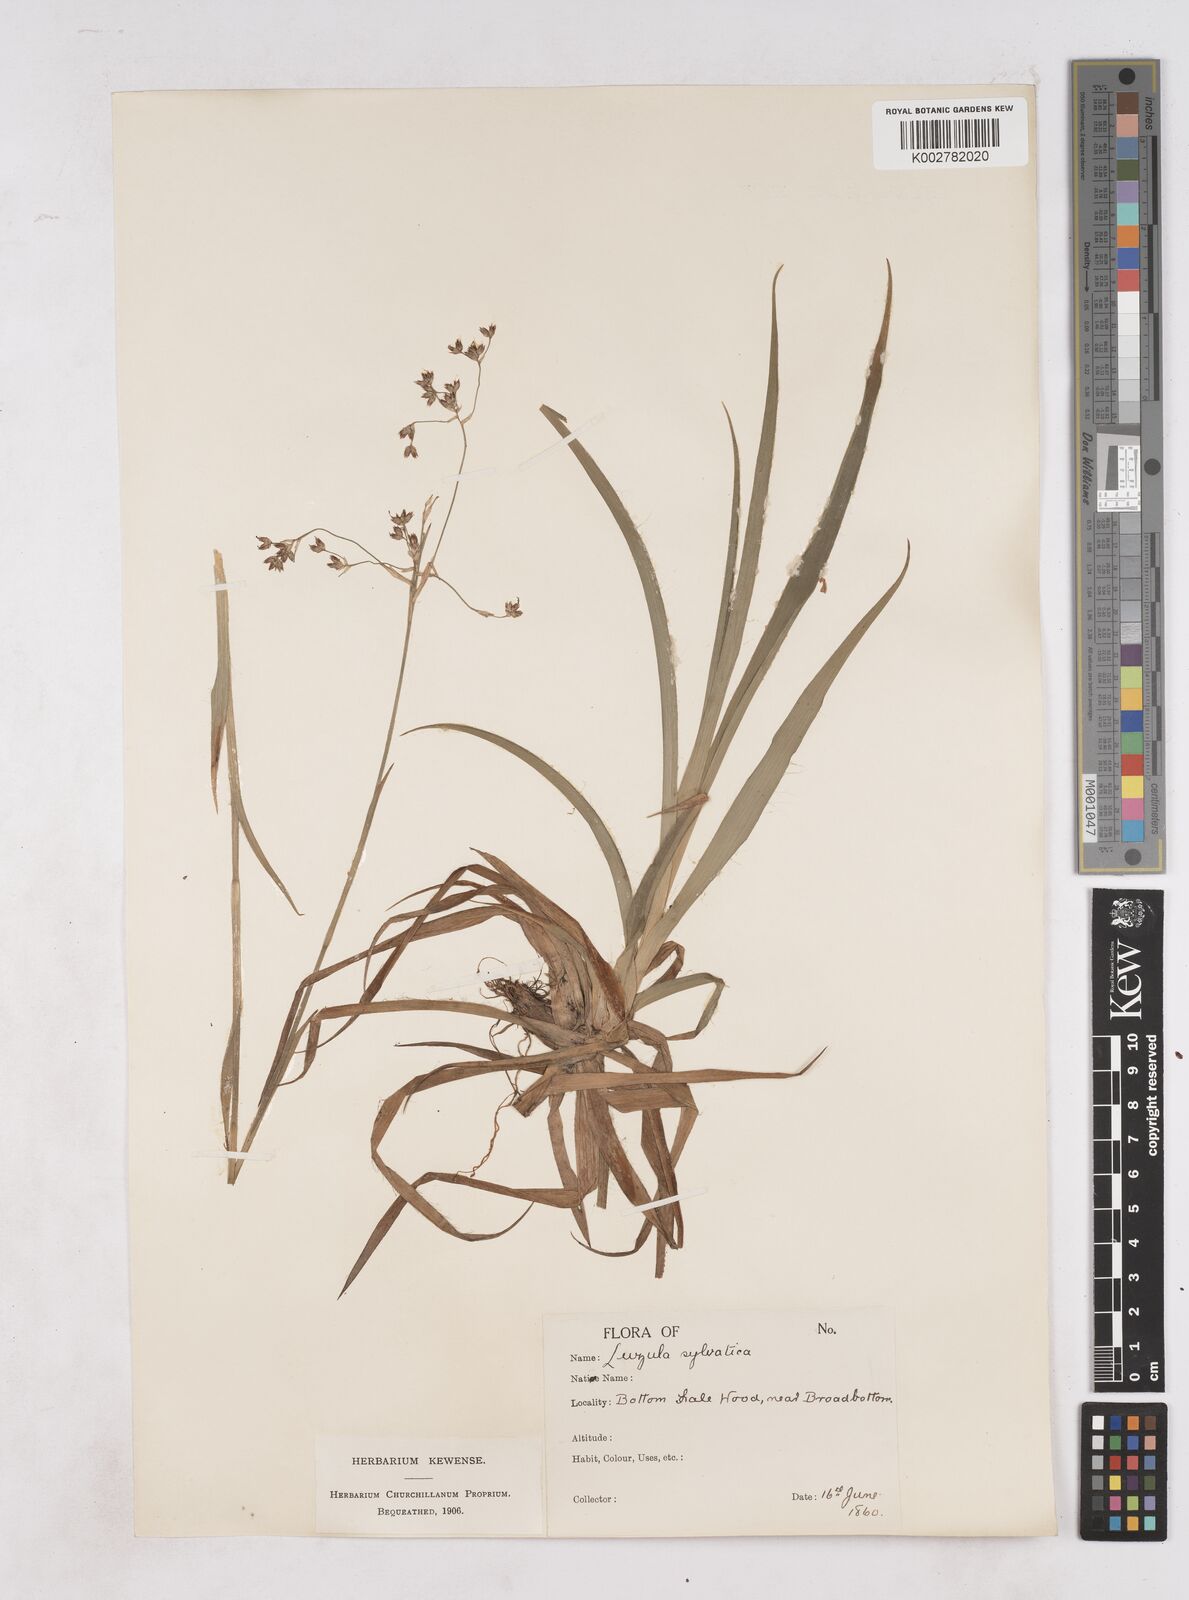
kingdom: Plantae
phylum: Tracheophyta
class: Liliopsida
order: Poales
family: Juncaceae
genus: Luzula
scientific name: Luzula sylvatica
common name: Great wood-rush
